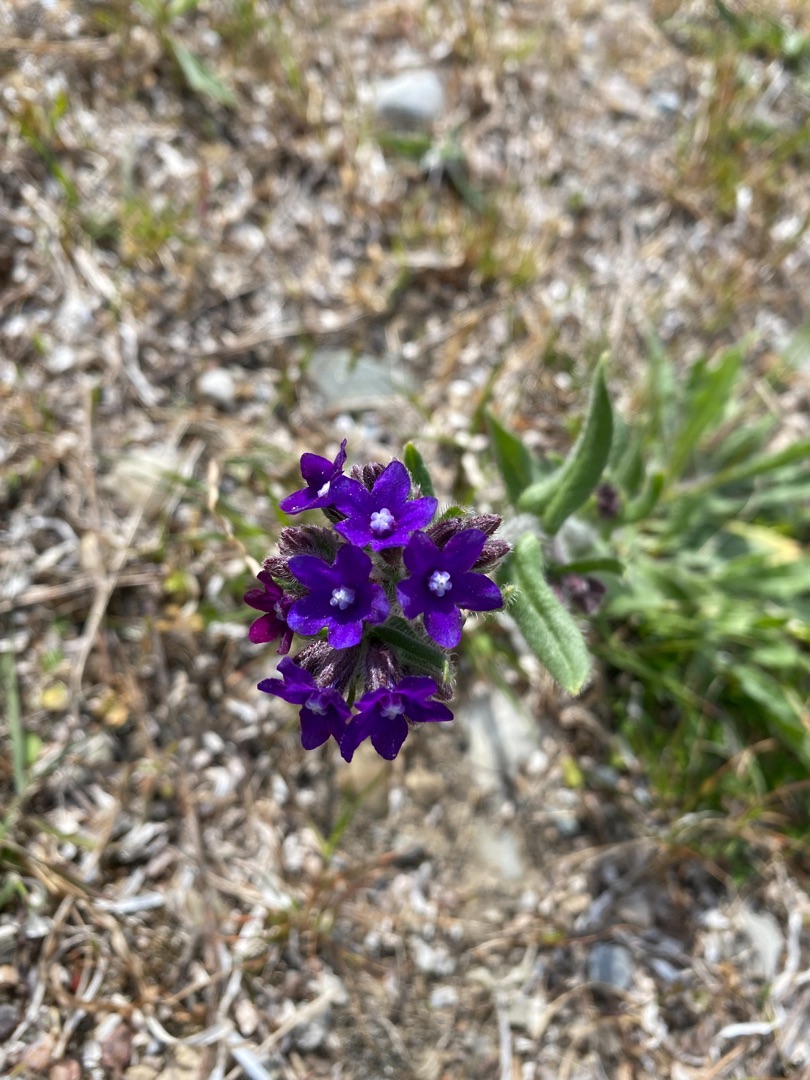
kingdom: Plantae
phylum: Tracheophyta
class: Magnoliopsida
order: Boraginales
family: Boraginaceae
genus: Anchusa
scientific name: Anchusa officinalis
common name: Læge-oksetunge
